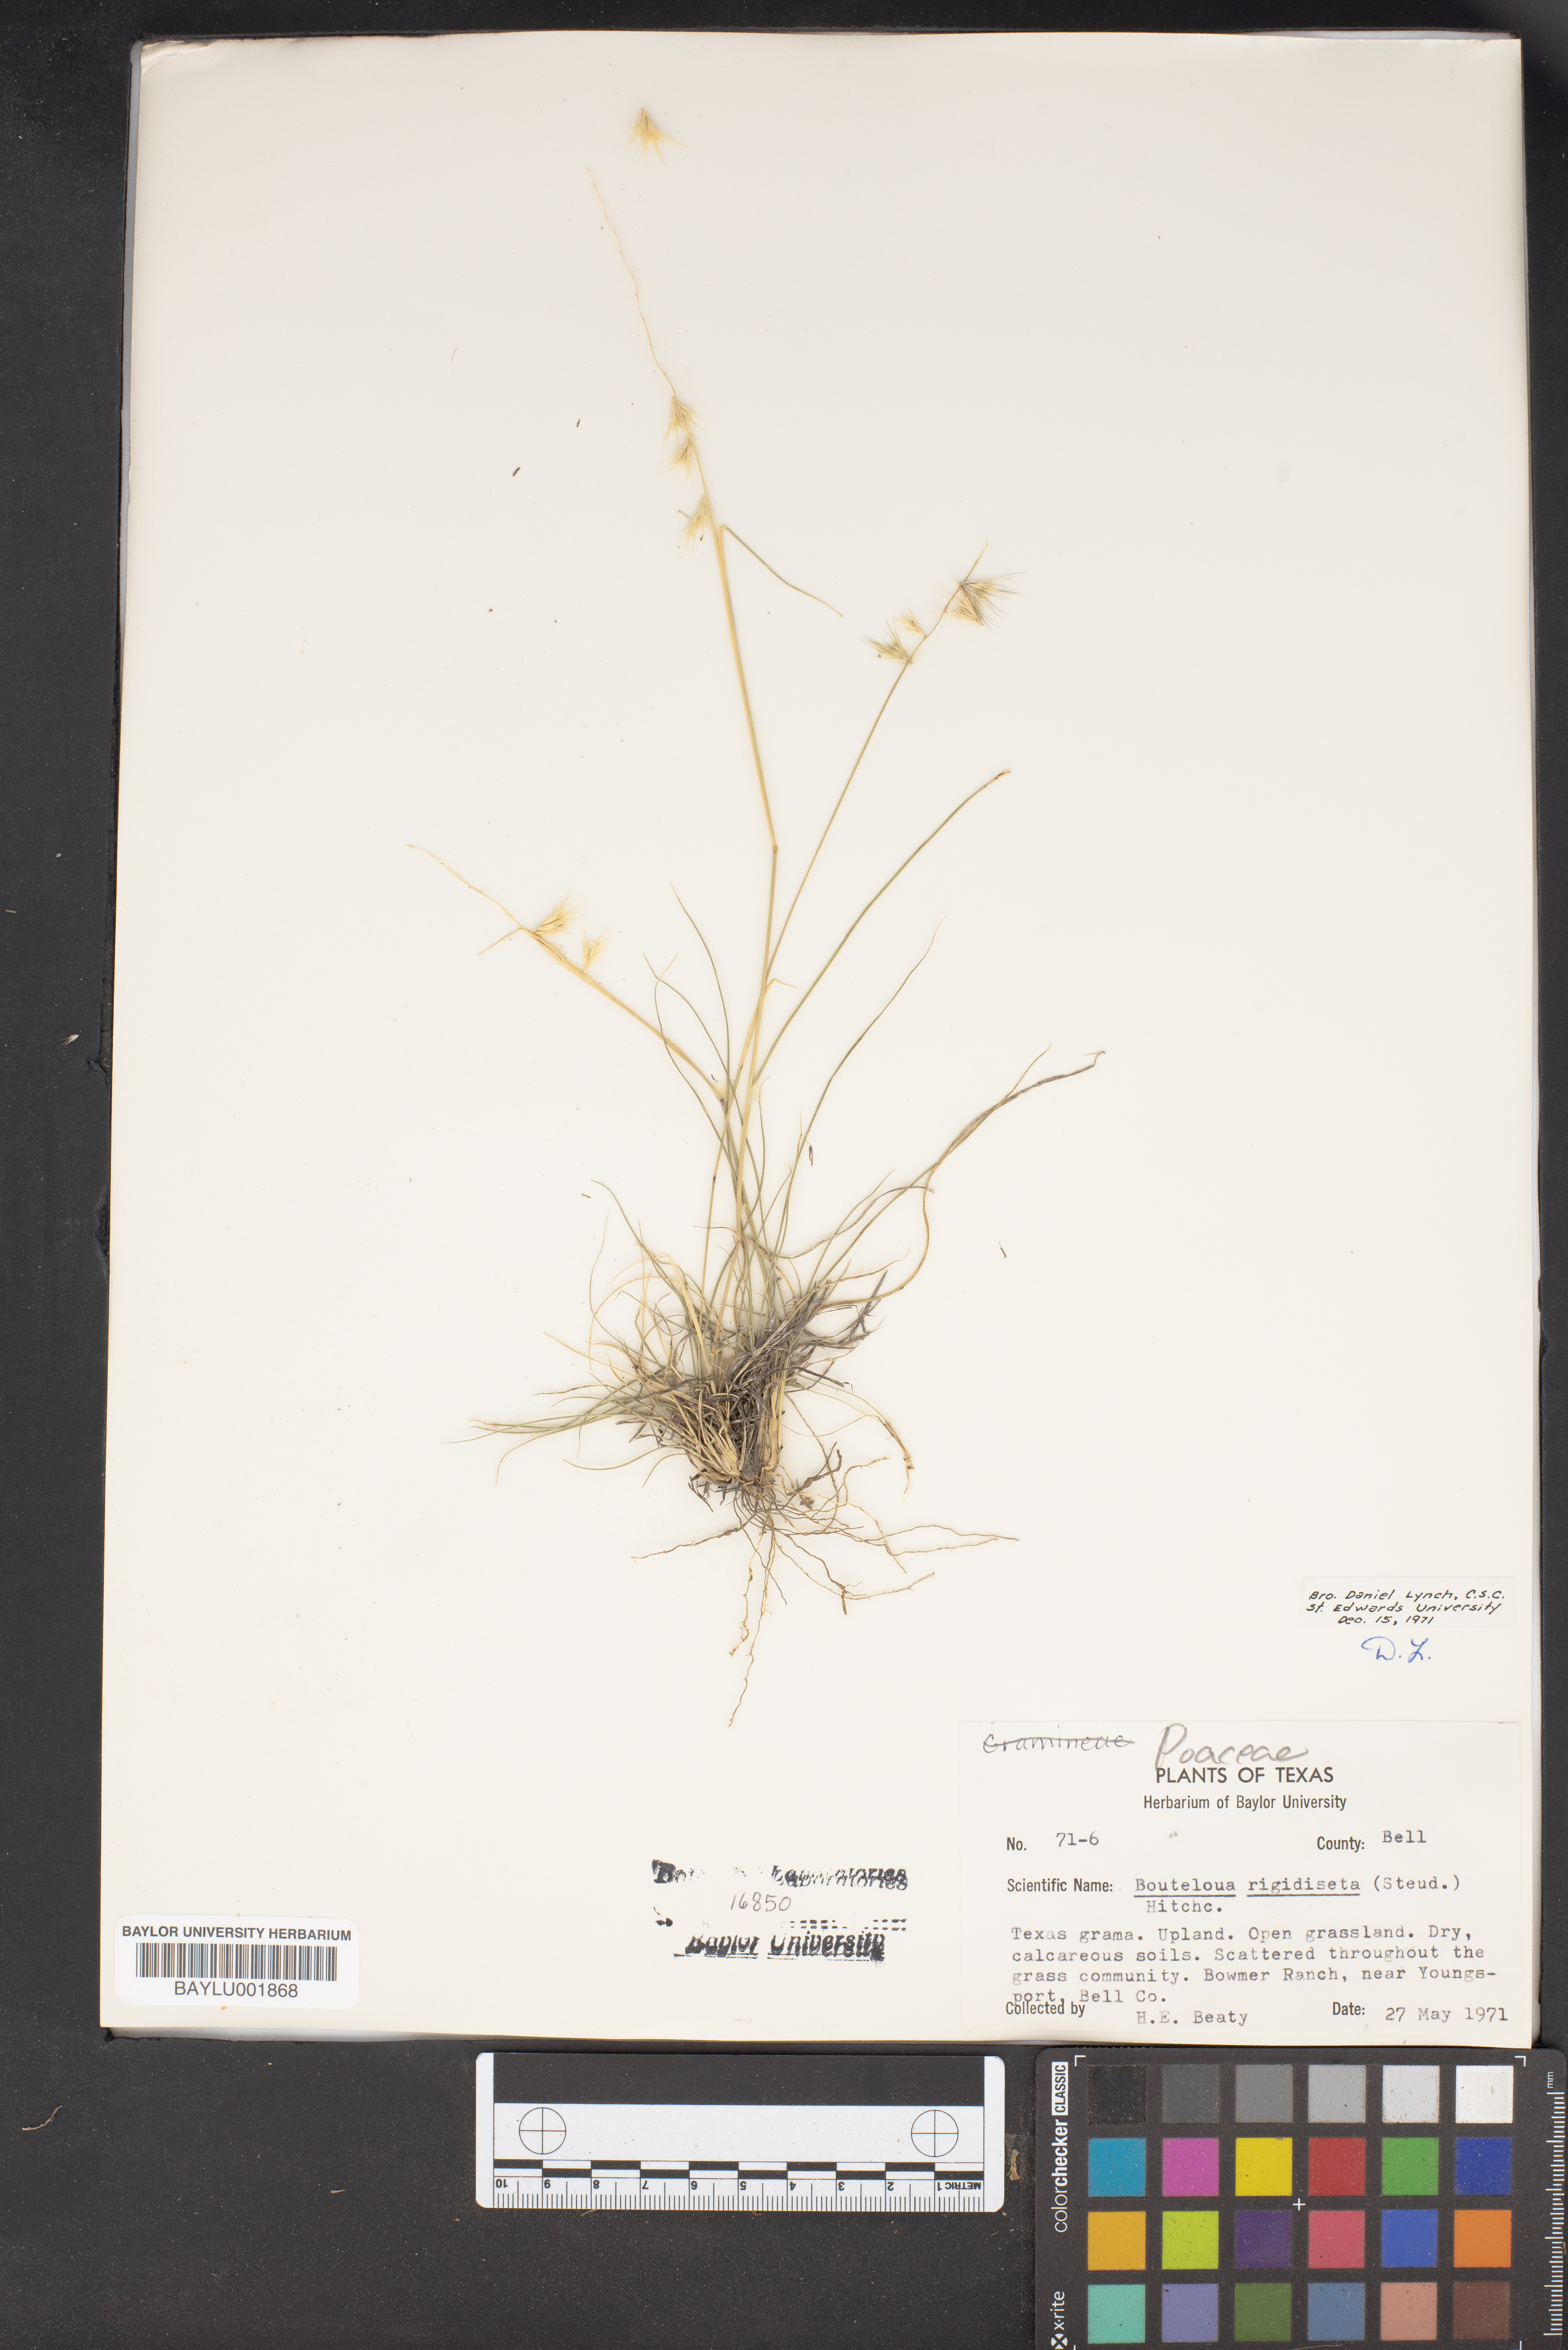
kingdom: Plantae
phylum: Tracheophyta
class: Liliopsida
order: Poales
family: Poaceae
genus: Bouteloua
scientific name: Bouteloua rigidiseta
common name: Texas grama
